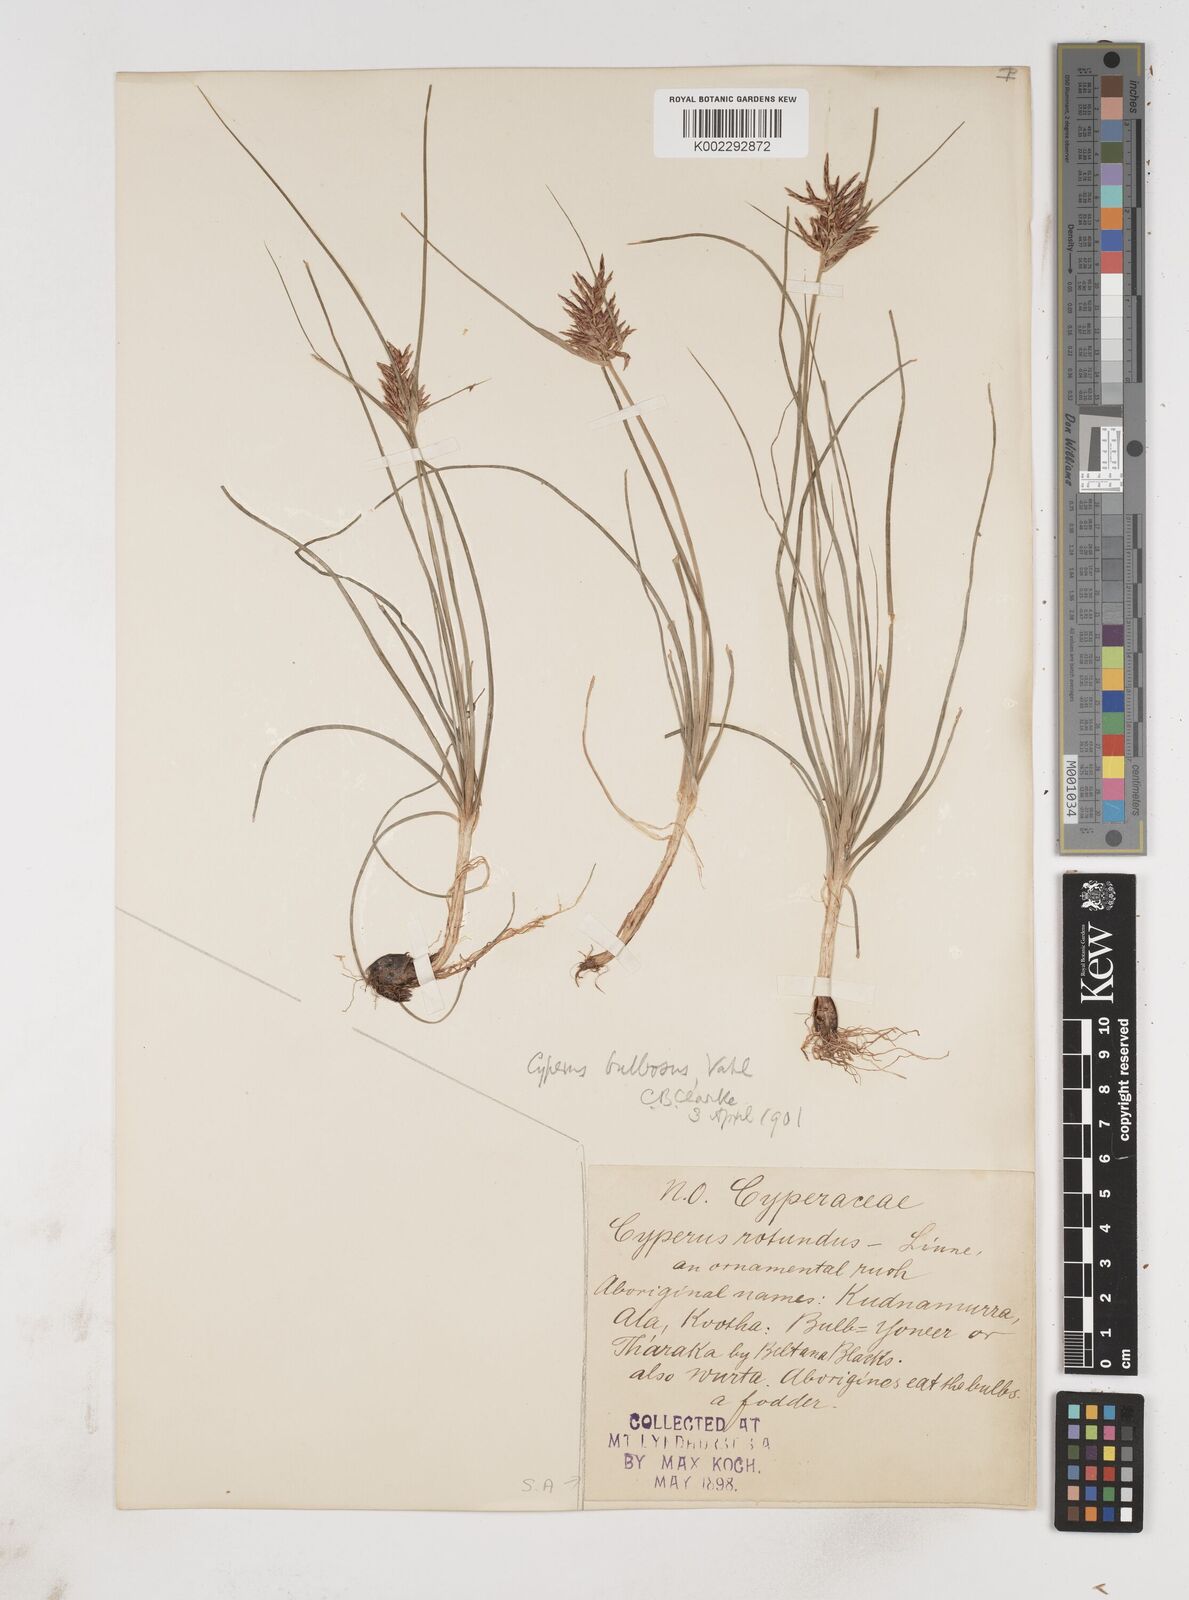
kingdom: Plantae
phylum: Tracheophyta
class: Liliopsida
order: Poales
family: Cyperaceae
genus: Cyperus
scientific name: Cyperus bulbosus
